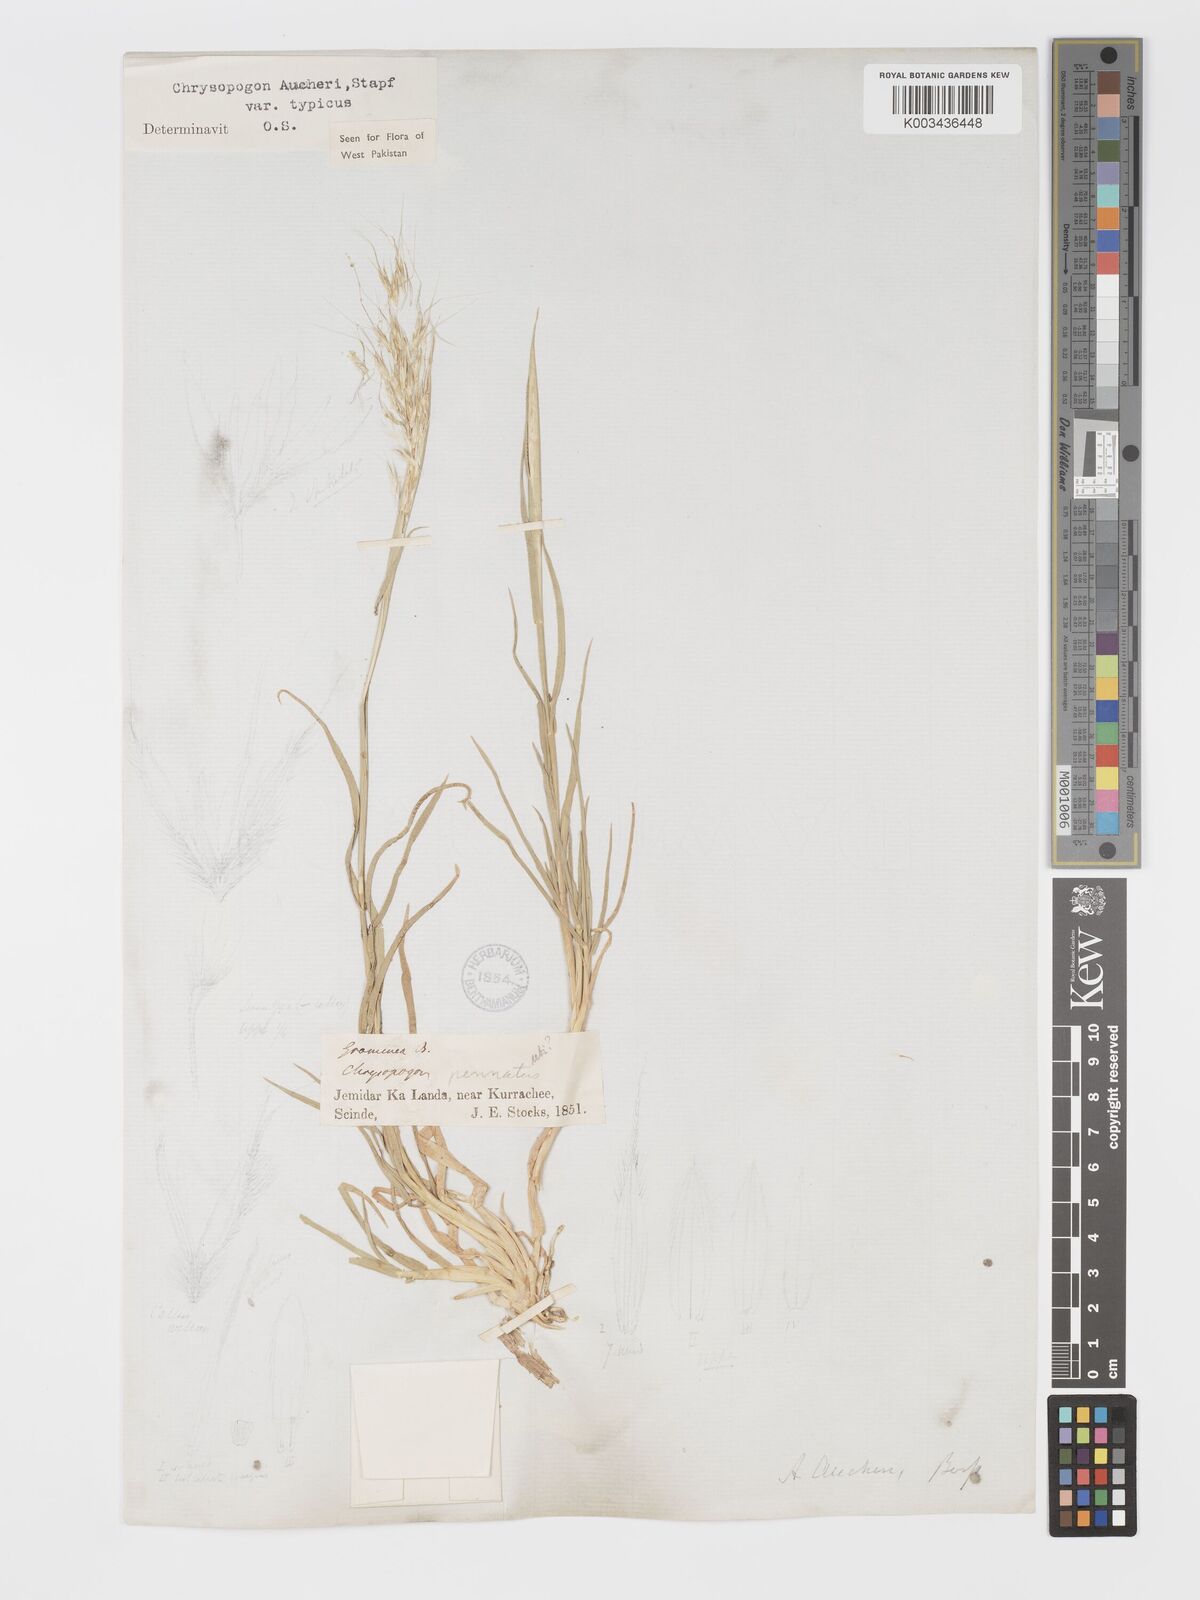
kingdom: Plantae
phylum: Tracheophyta
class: Liliopsida
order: Poales
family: Poaceae
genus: Chrysopogon
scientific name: Chrysopogon aucheri
